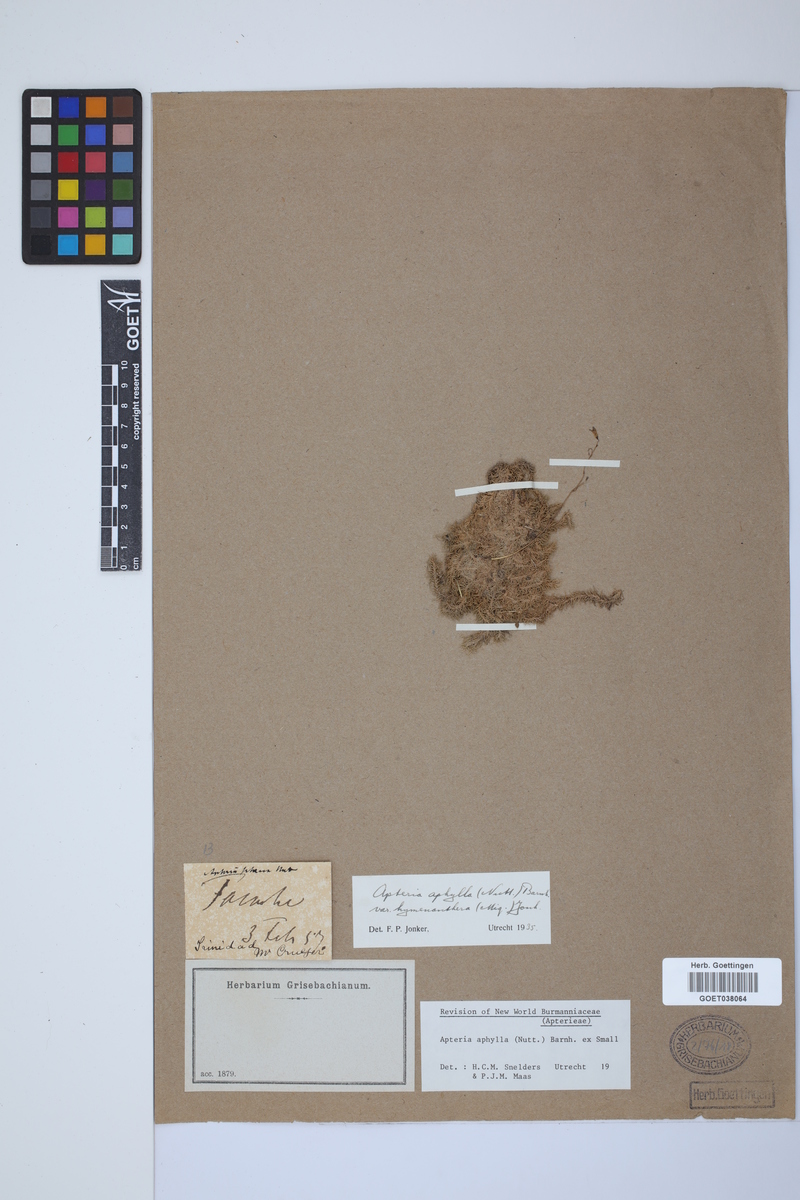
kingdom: Plantae
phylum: Tracheophyta
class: Liliopsida
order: Dioscoreales
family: Burmanniaceae
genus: Apteria
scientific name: Apteria aphylla
